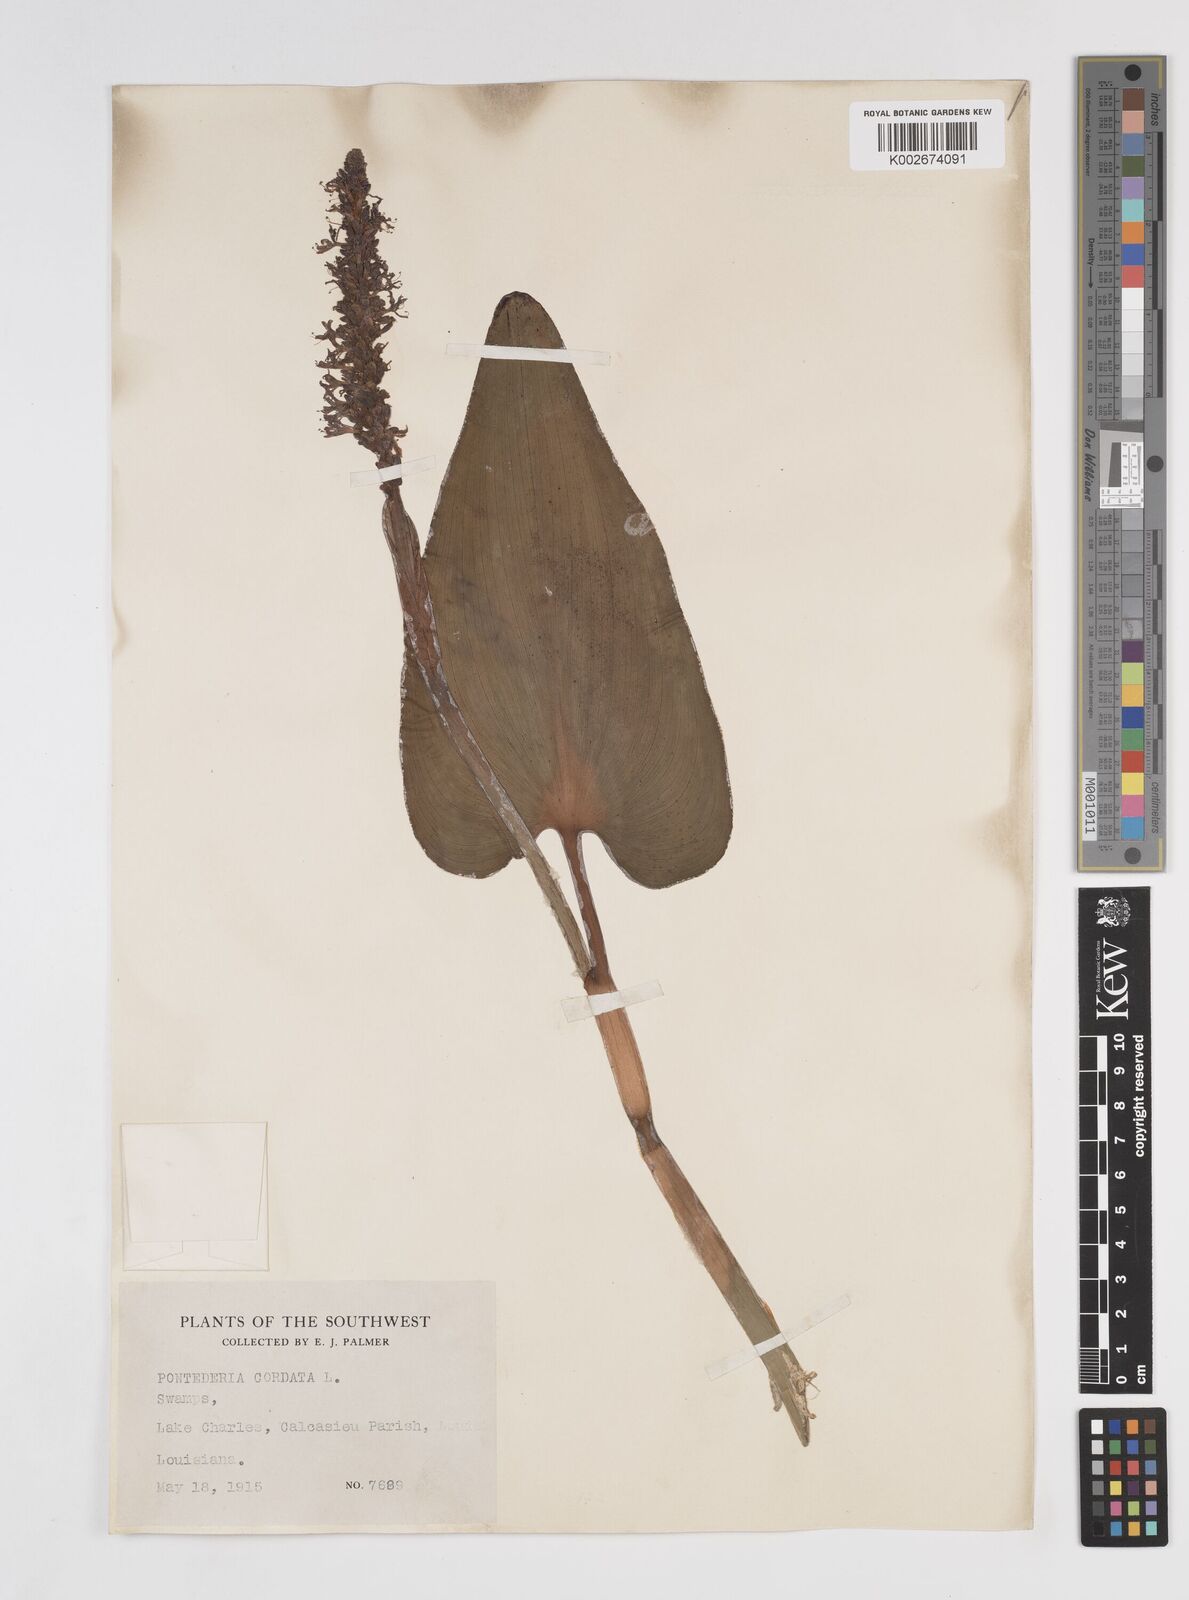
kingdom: Plantae
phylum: Tracheophyta
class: Liliopsida
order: Commelinales
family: Pontederiaceae
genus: Pontederia
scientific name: Pontederia cordata
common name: Pickerelweed
